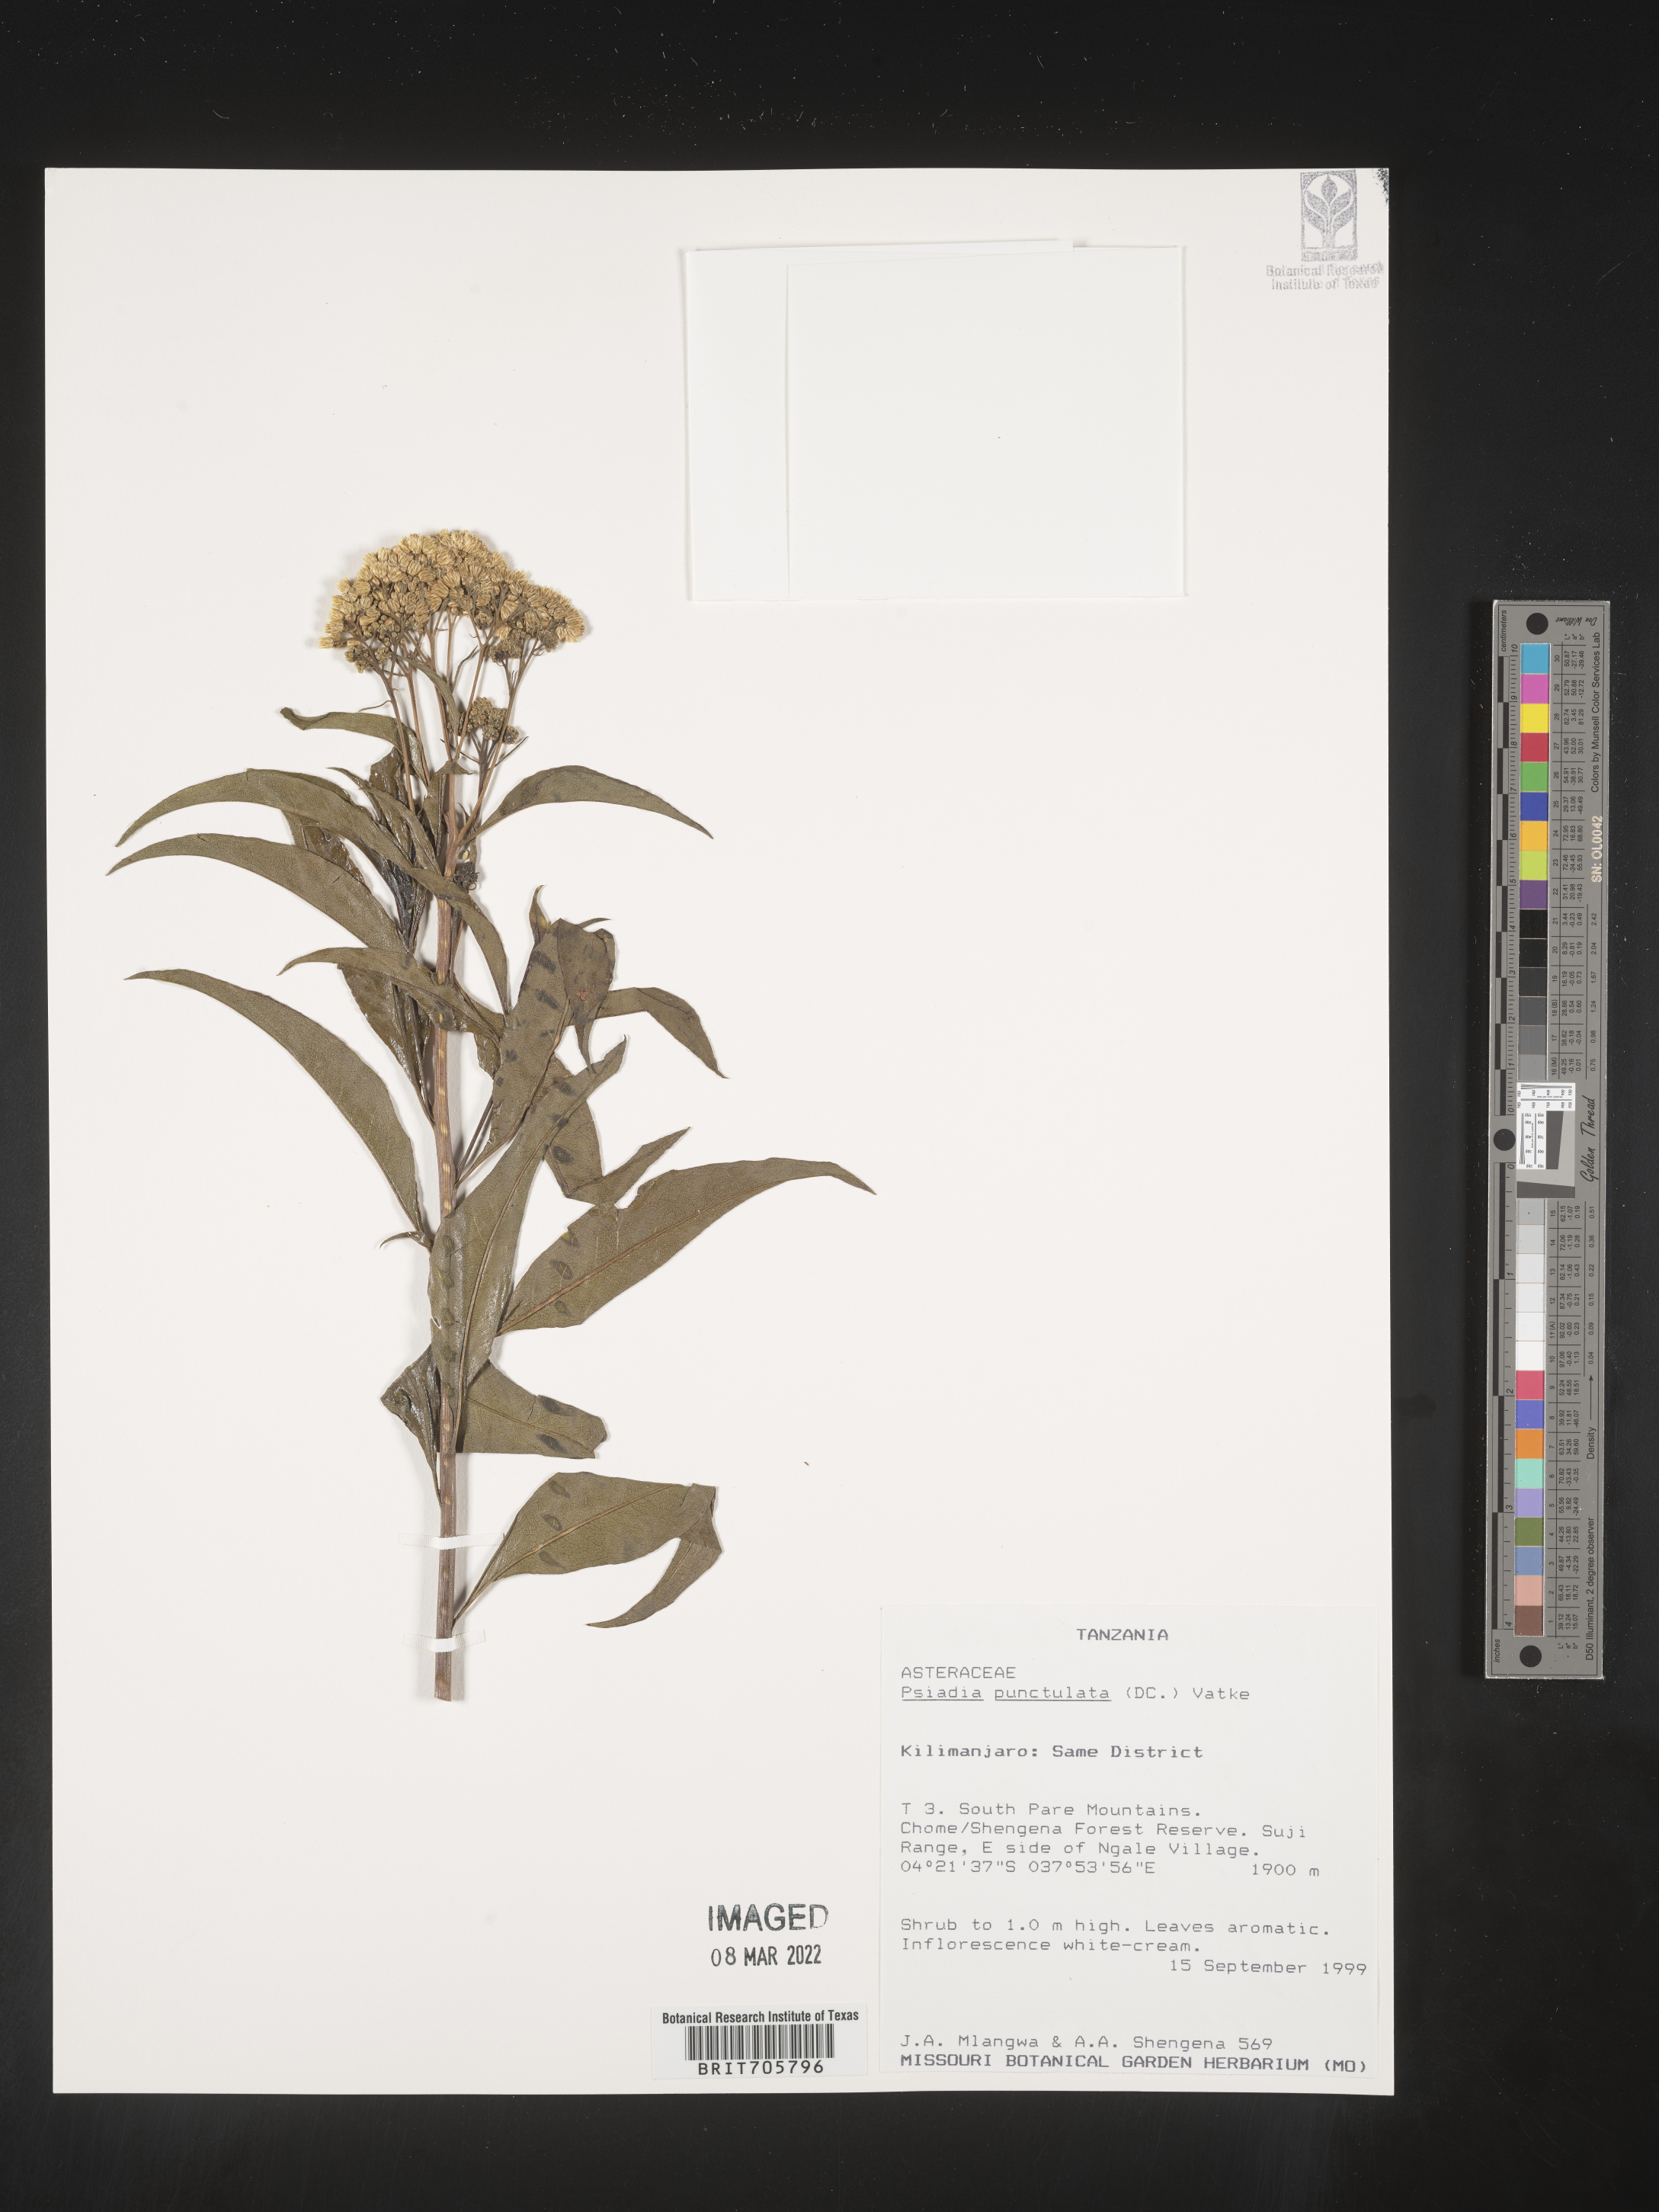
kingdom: Plantae
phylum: Tracheophyta
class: Magnoliopsida
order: Asterales
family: Asteraceae
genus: Psiadia
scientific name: Psiadia
